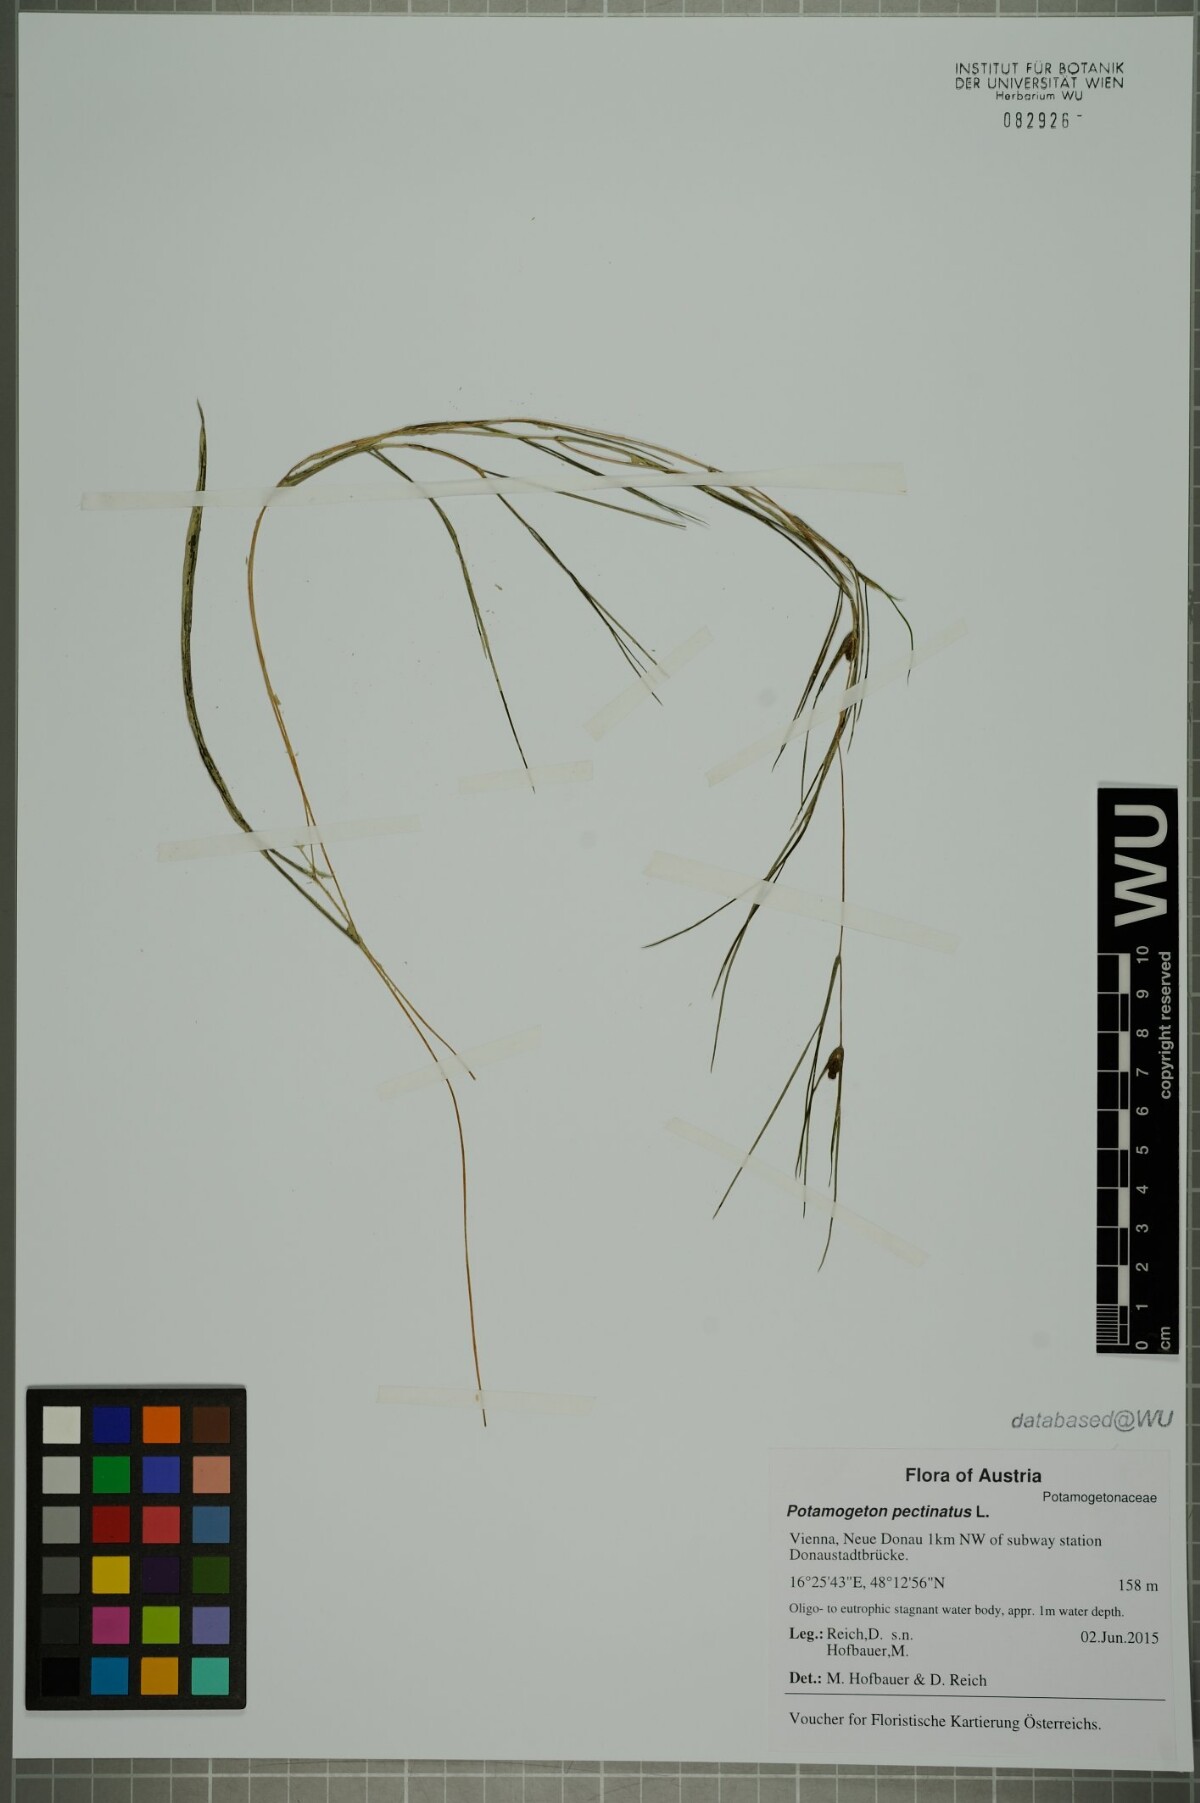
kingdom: Plantae
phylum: Tracheophyta
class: Liliopsida
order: Alismatales
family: Potamogetonaceae
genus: Stuckenia
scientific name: Stuckenia pectinata
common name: Sago pondweed
